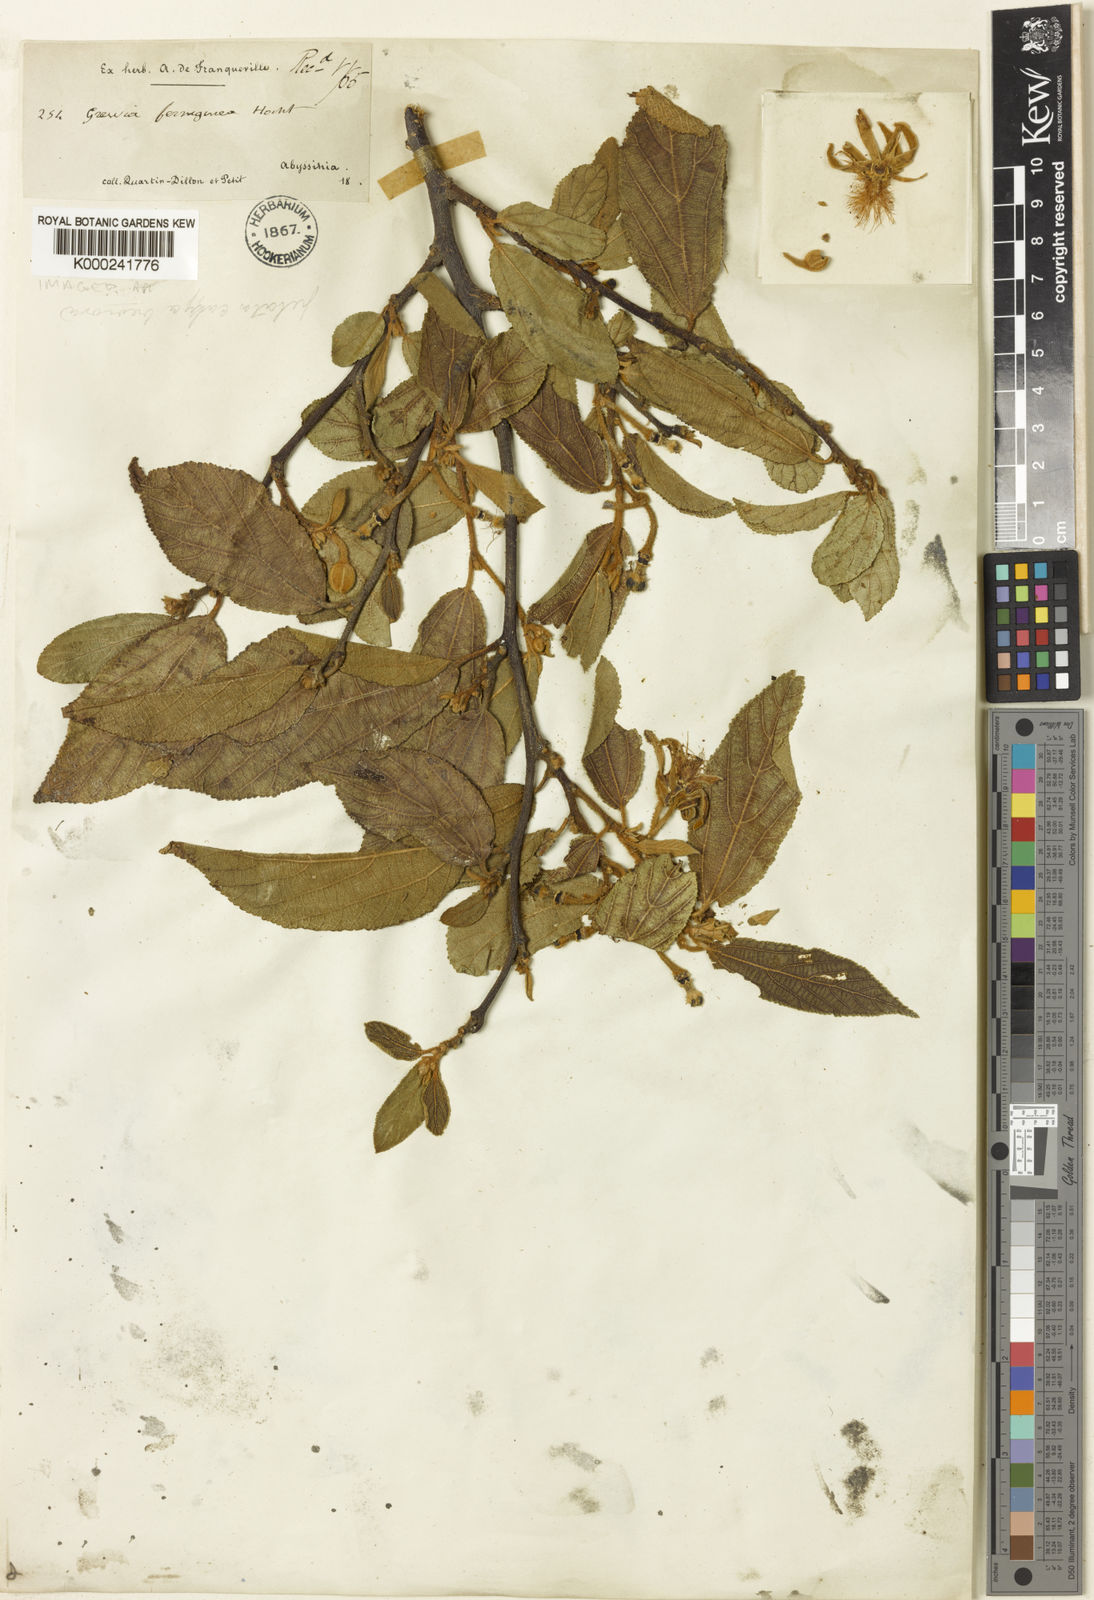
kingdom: Plantae
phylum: Tracheophyta
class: Magnoliopsida
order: Malvales
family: Malvaceae
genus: Grewia
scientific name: Grewia ferruginea
